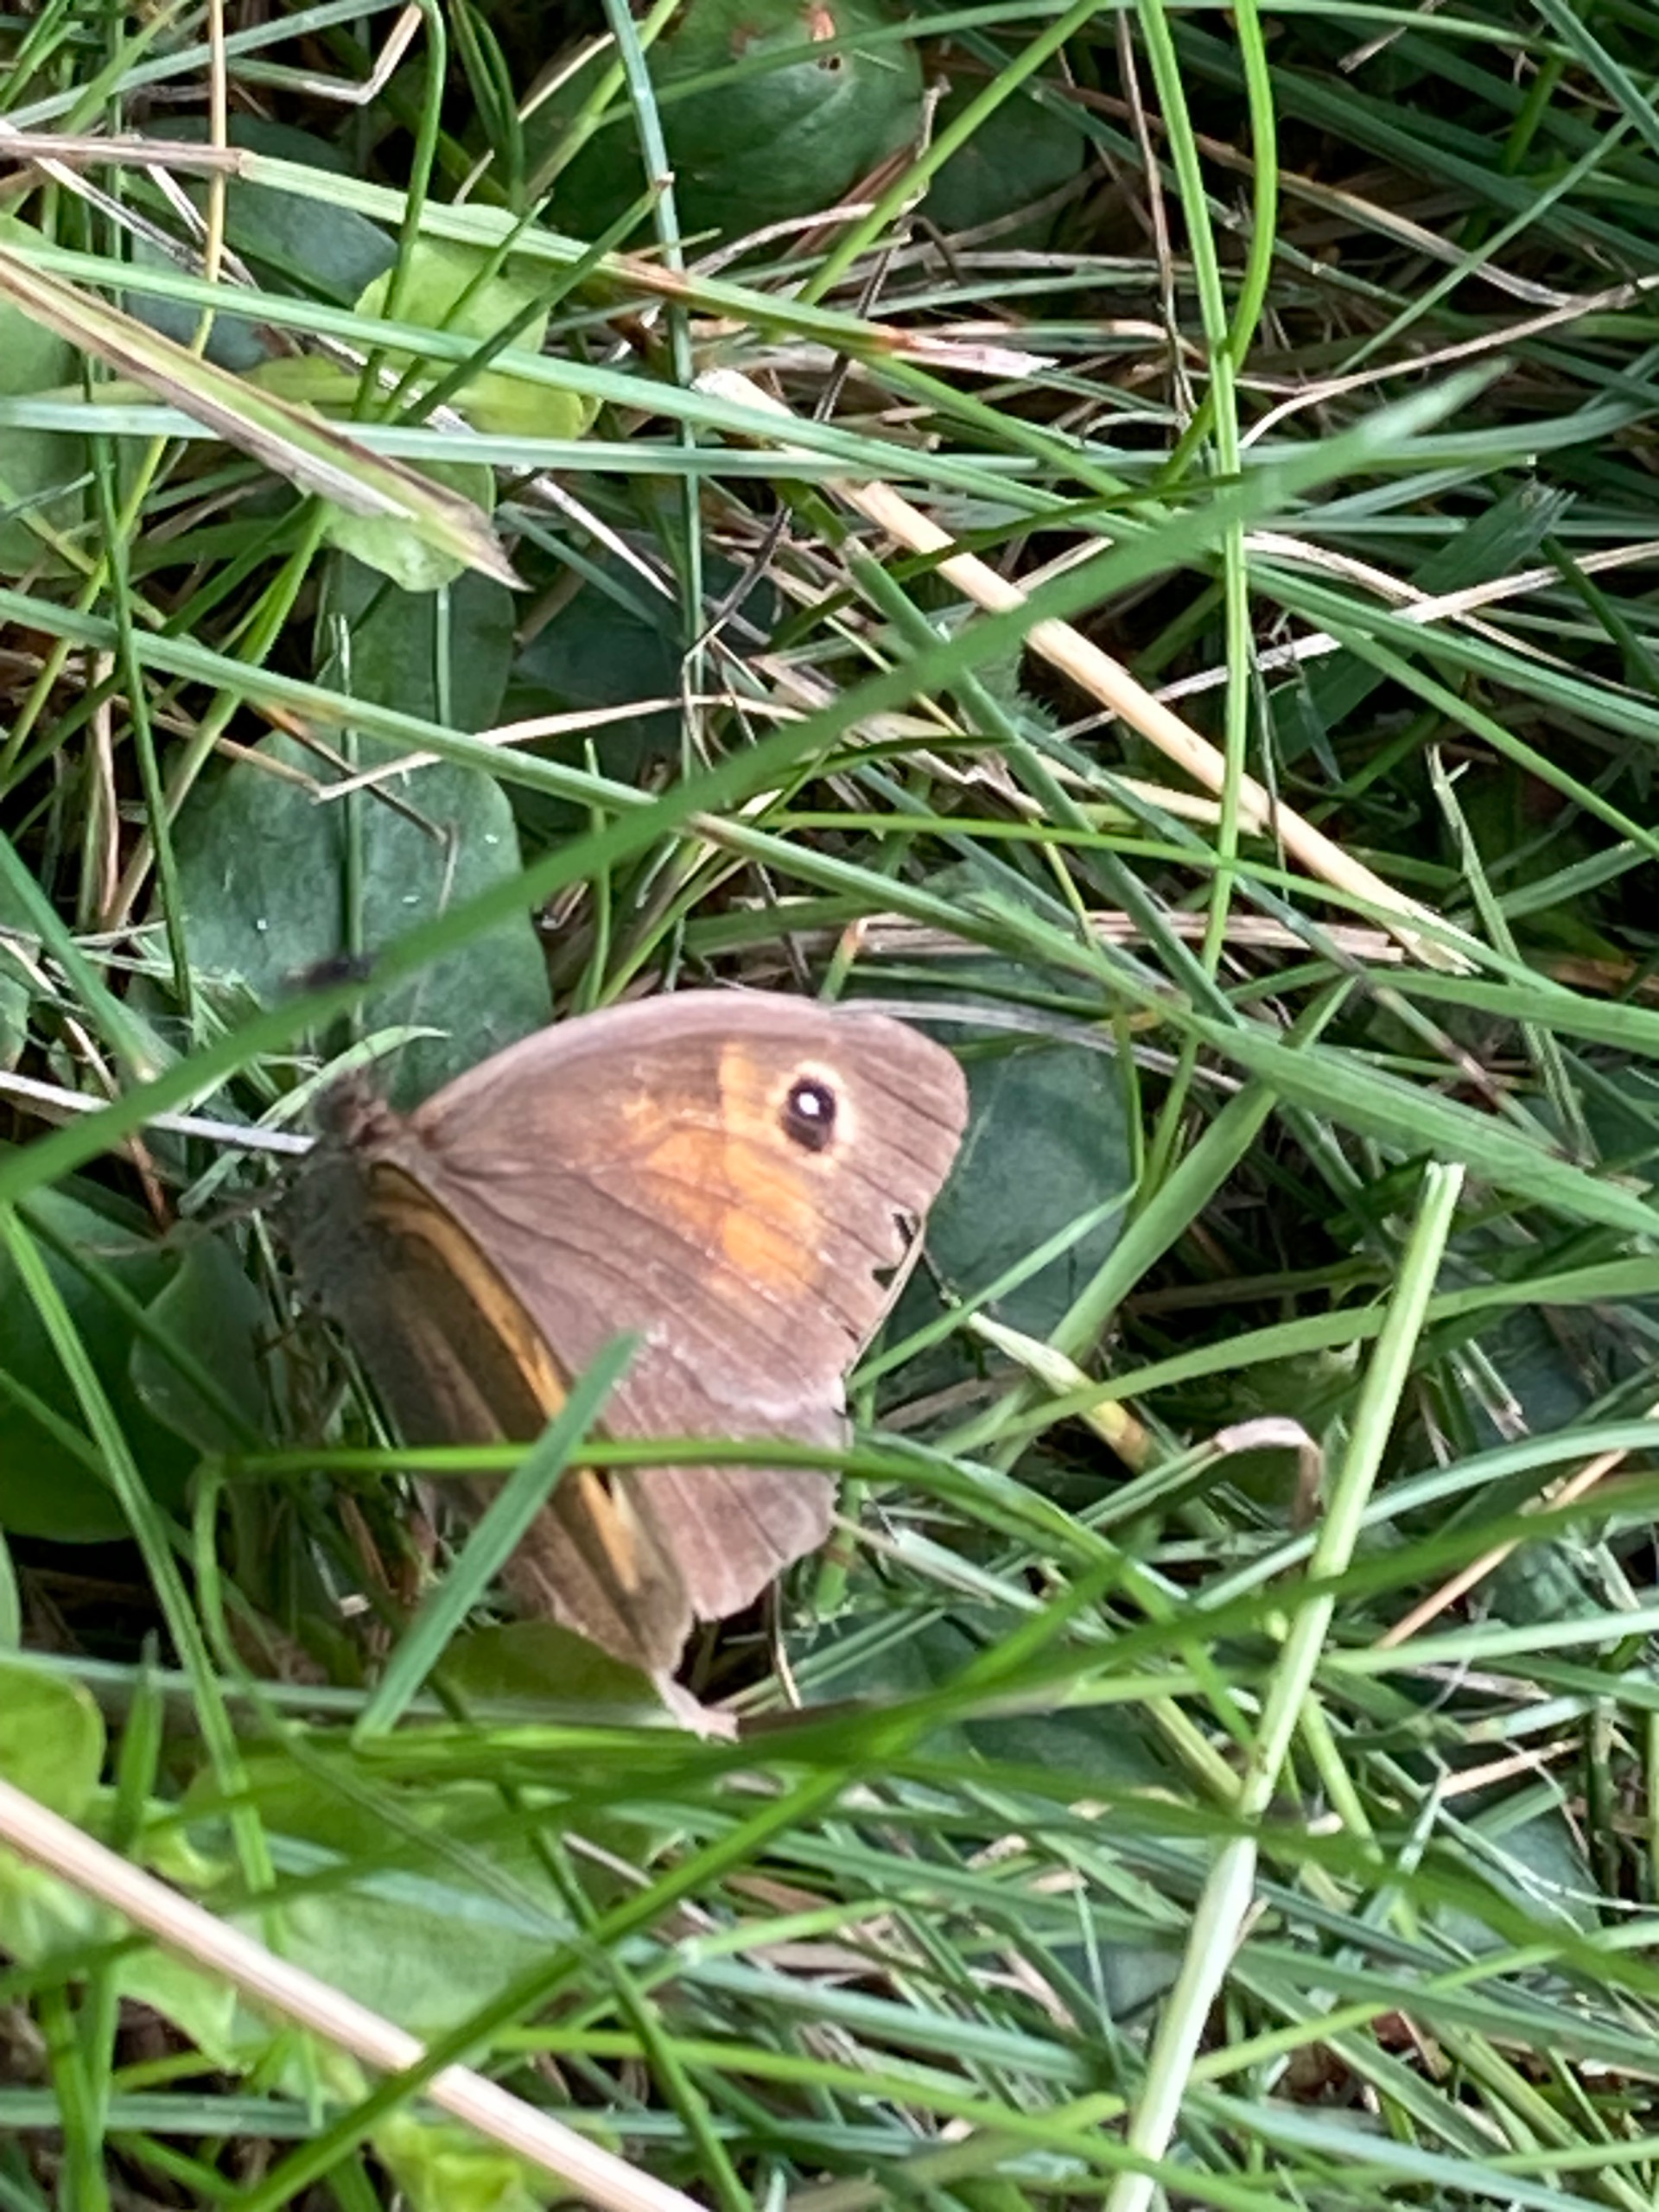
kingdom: Animalia
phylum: Arthropoda
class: Insecta
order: Lepidoptera
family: Nymphalidae
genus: Maniola
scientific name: Maniola jurtina
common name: Græsrandøje
